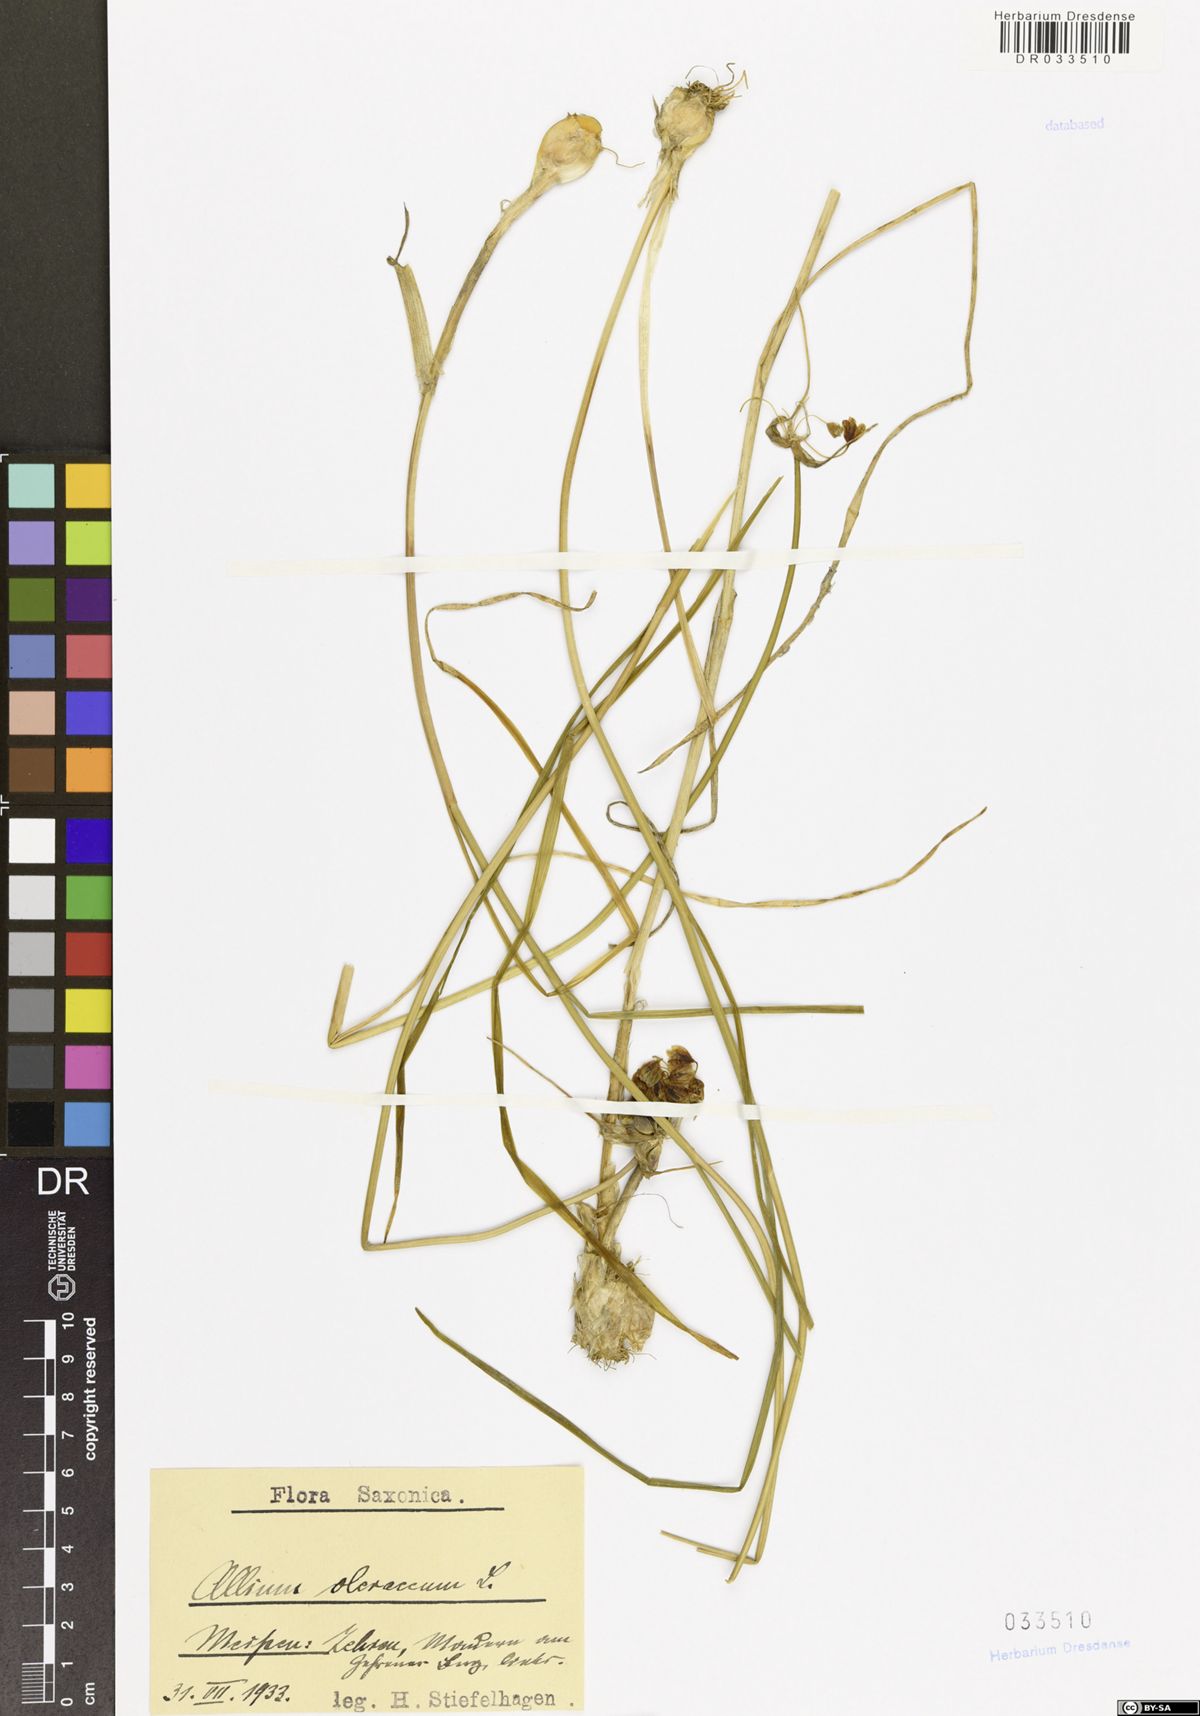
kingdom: Plantae
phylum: Tracheophyta
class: Liliopsida
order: Asparagales
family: Amaryllidaceae
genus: Allium
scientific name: Allium oleraceum
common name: Field garlic
